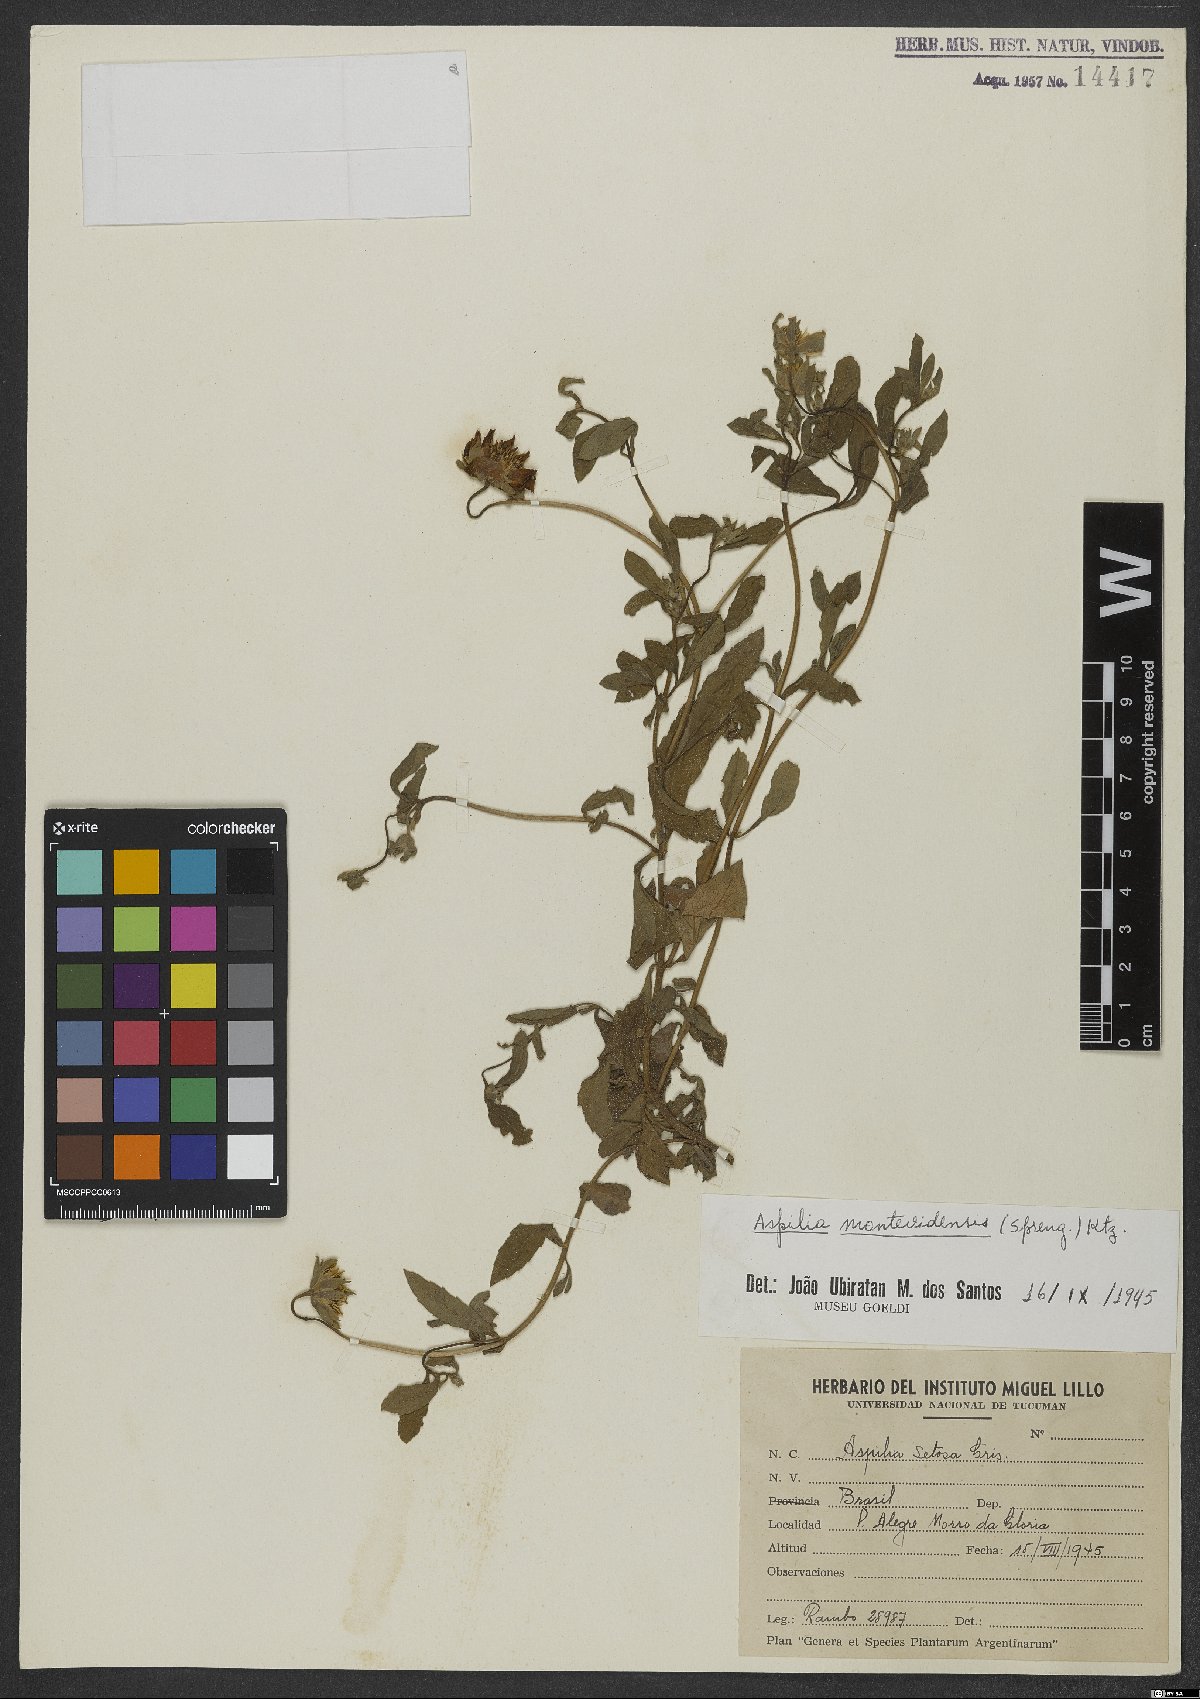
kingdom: Plantae
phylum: Tracheophyta
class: Magnoliopsida
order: Asterales
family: Asteraceae
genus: Wedelia
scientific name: Wedelia montevidensis
